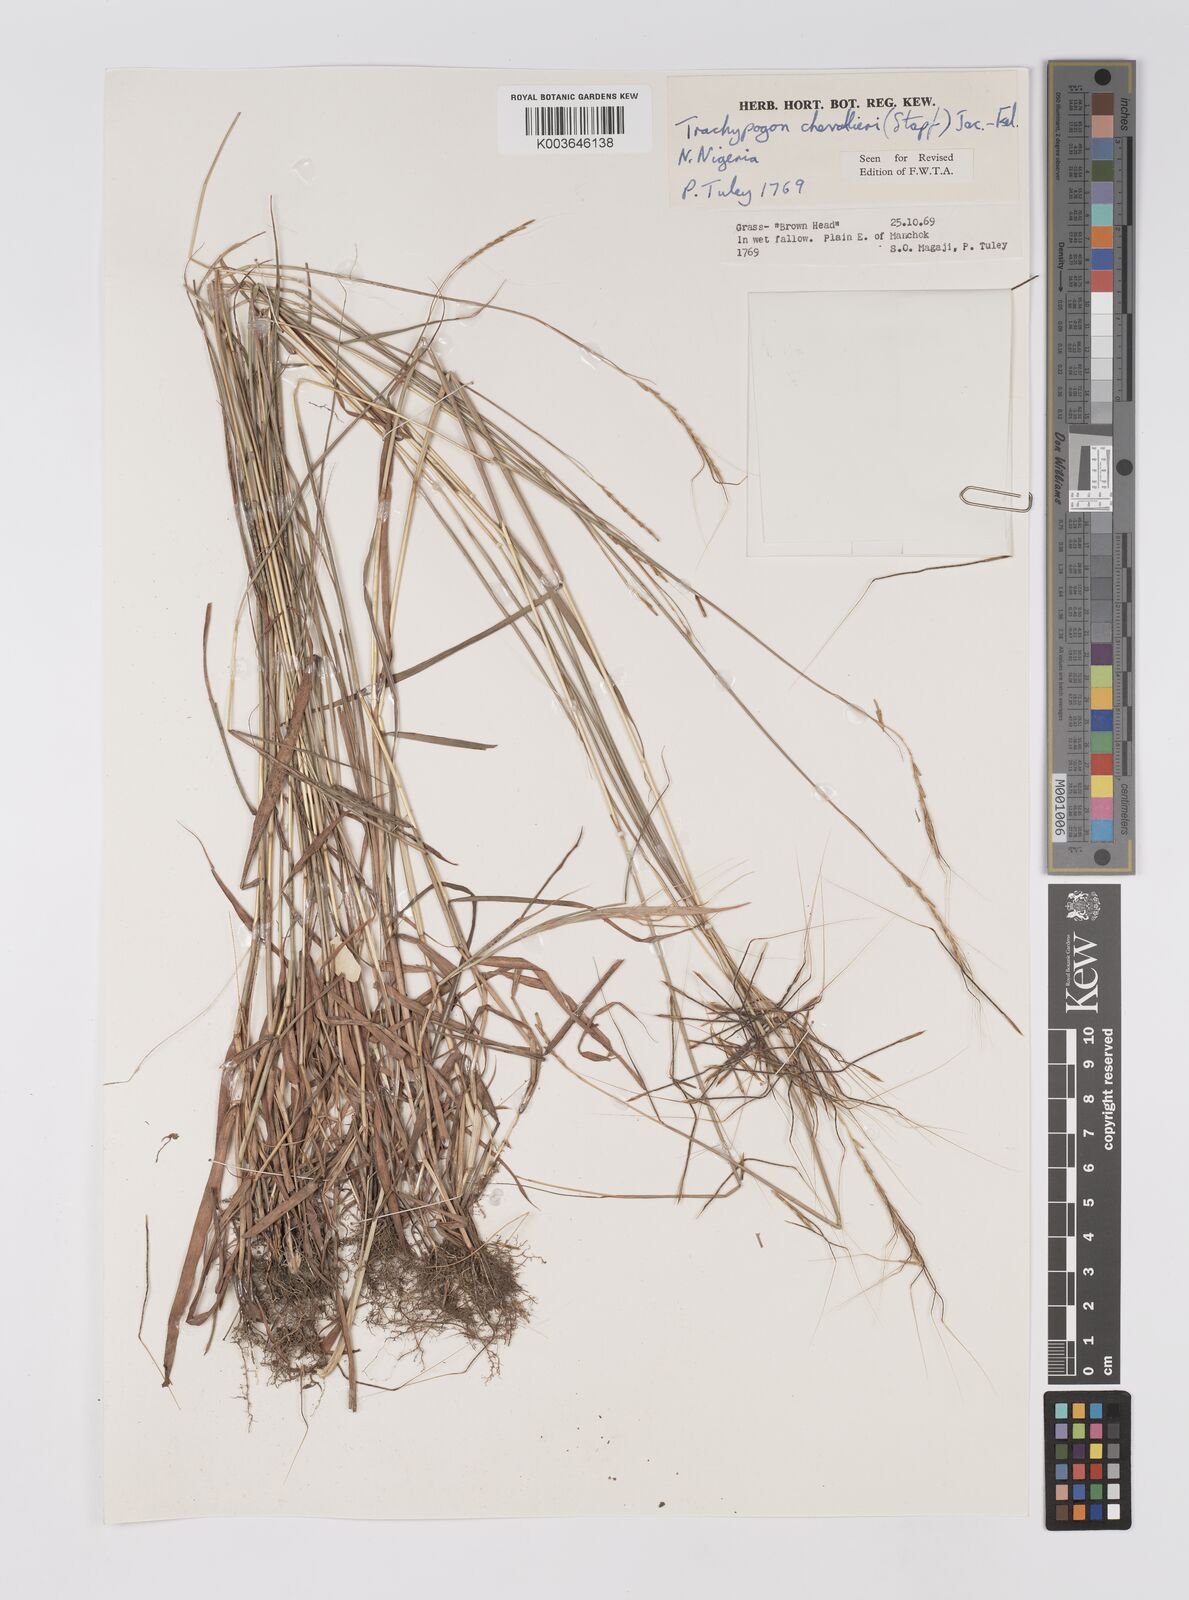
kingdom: Plantae
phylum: Tracheophyta
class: Liliopsida
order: Poales
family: Poaceae
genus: Trachypogon
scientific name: Trachypogon chevalieri
